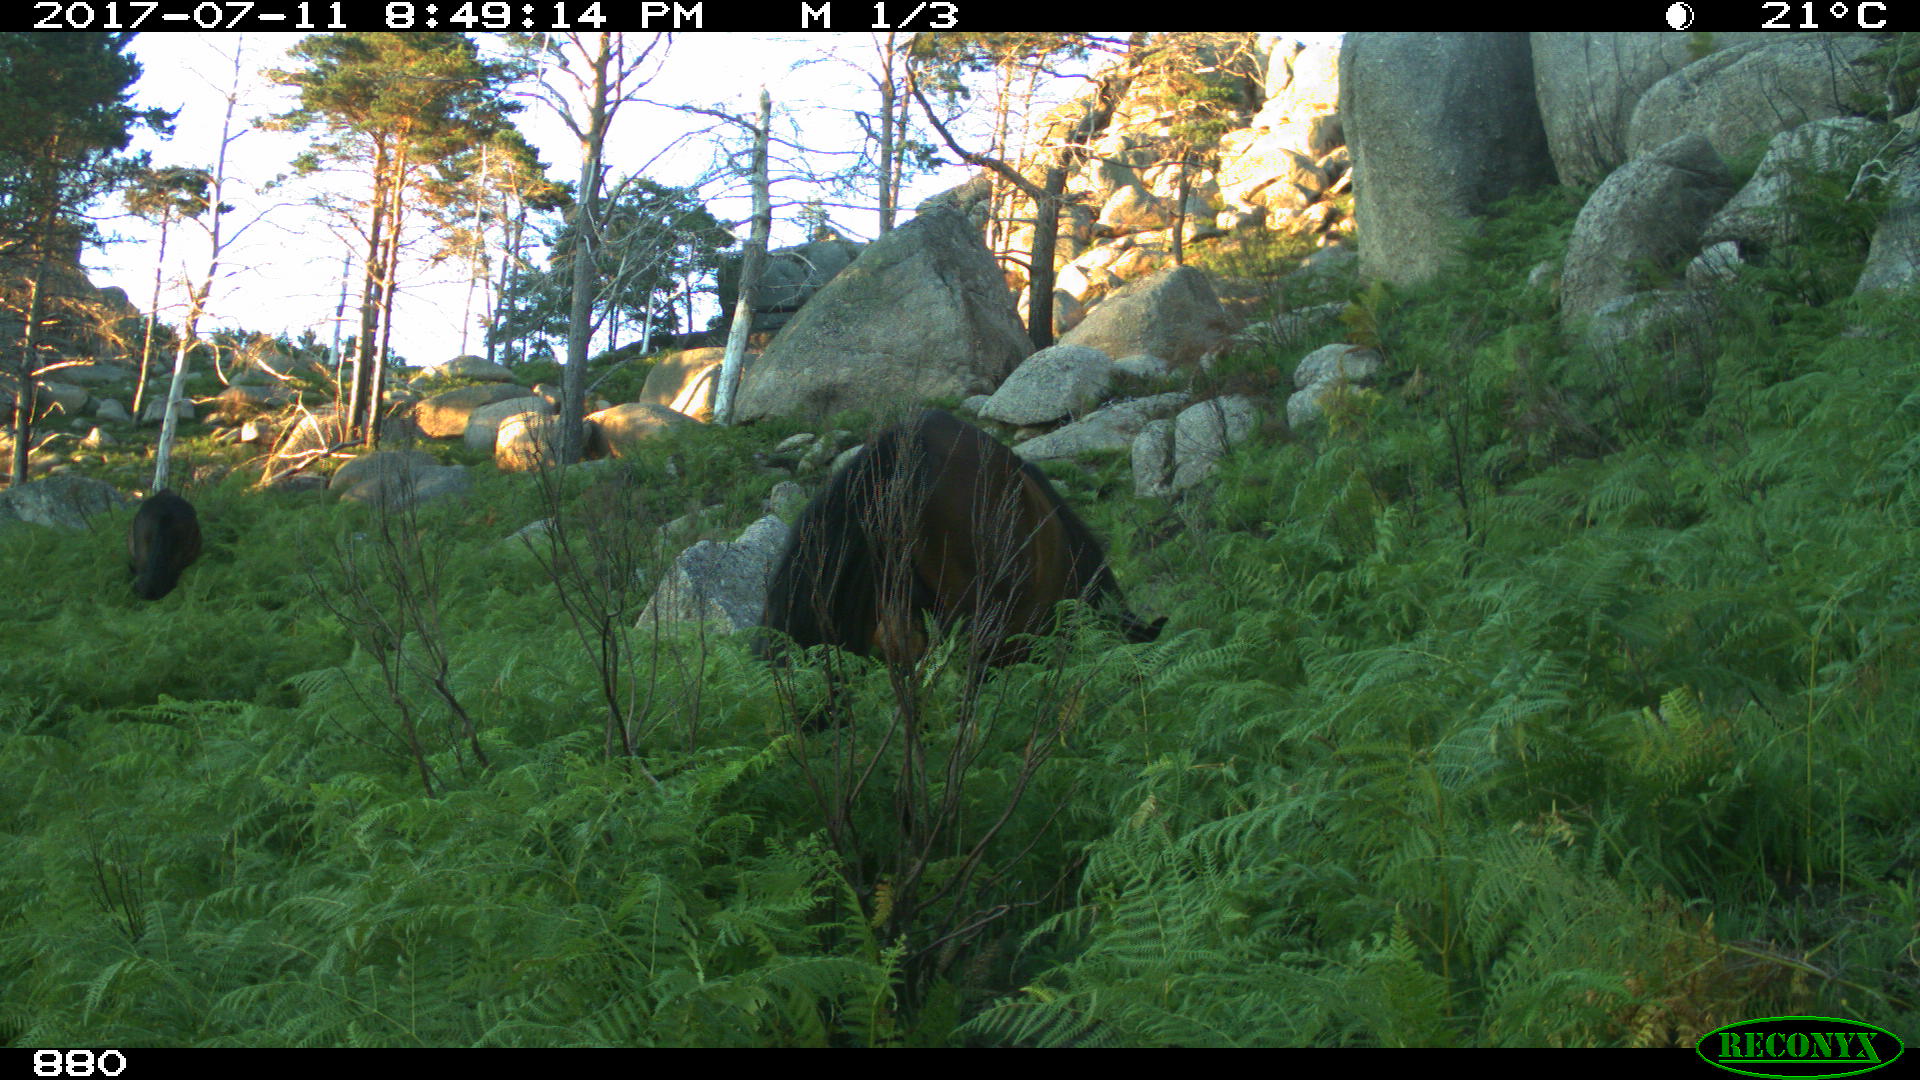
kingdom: Animalia
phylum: Chordata
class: Mammalia
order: Perissodactyla
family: Equidae
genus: Equus
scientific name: Equus caballus
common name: Horse
